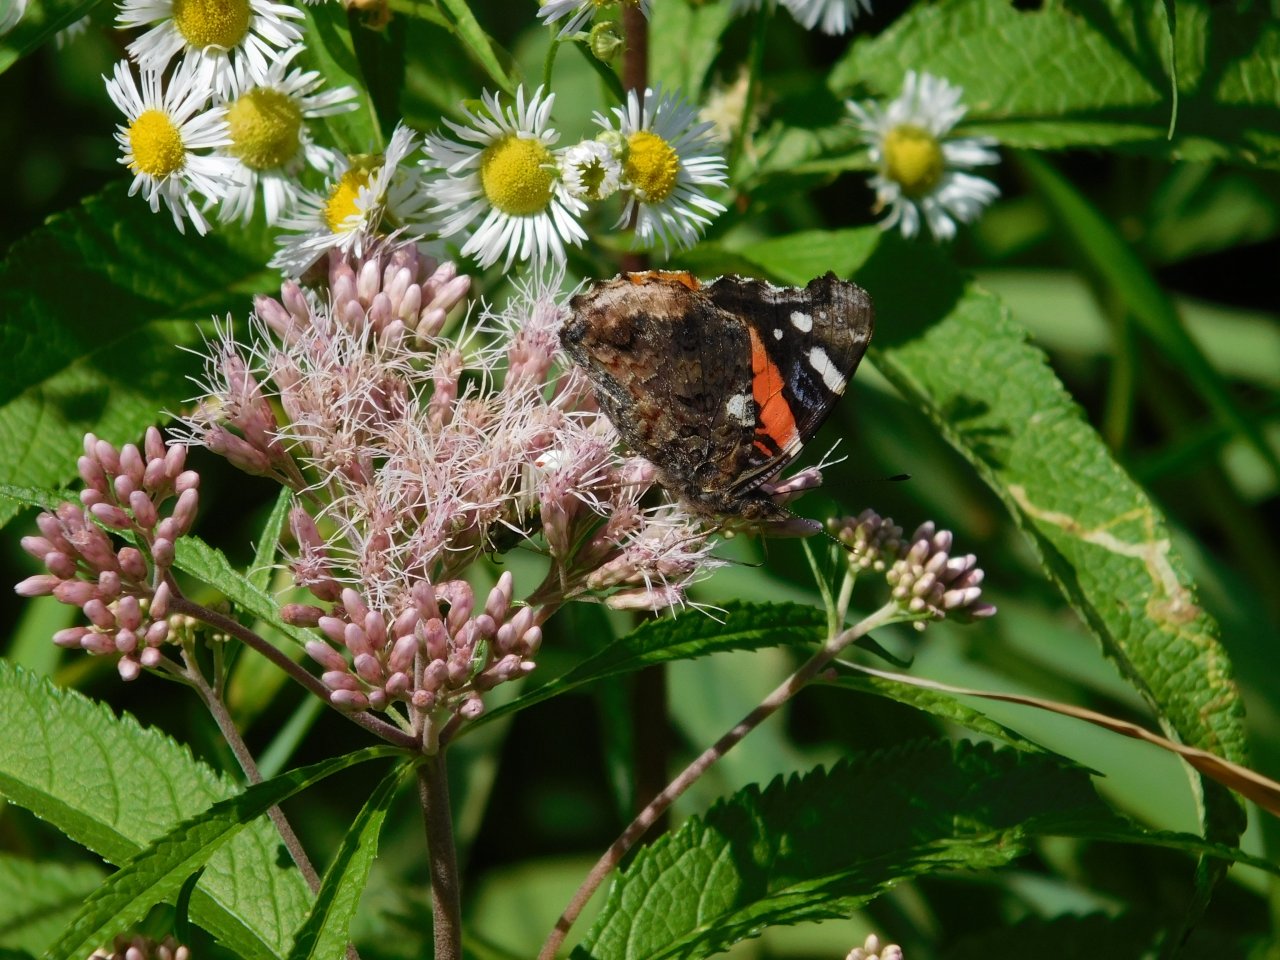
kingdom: Animalia
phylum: Arthropoda
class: Insecta
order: Lepidoptera
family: Nymphalidae
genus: Vanessa
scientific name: Vanessa atalanta
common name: Red Admiral
